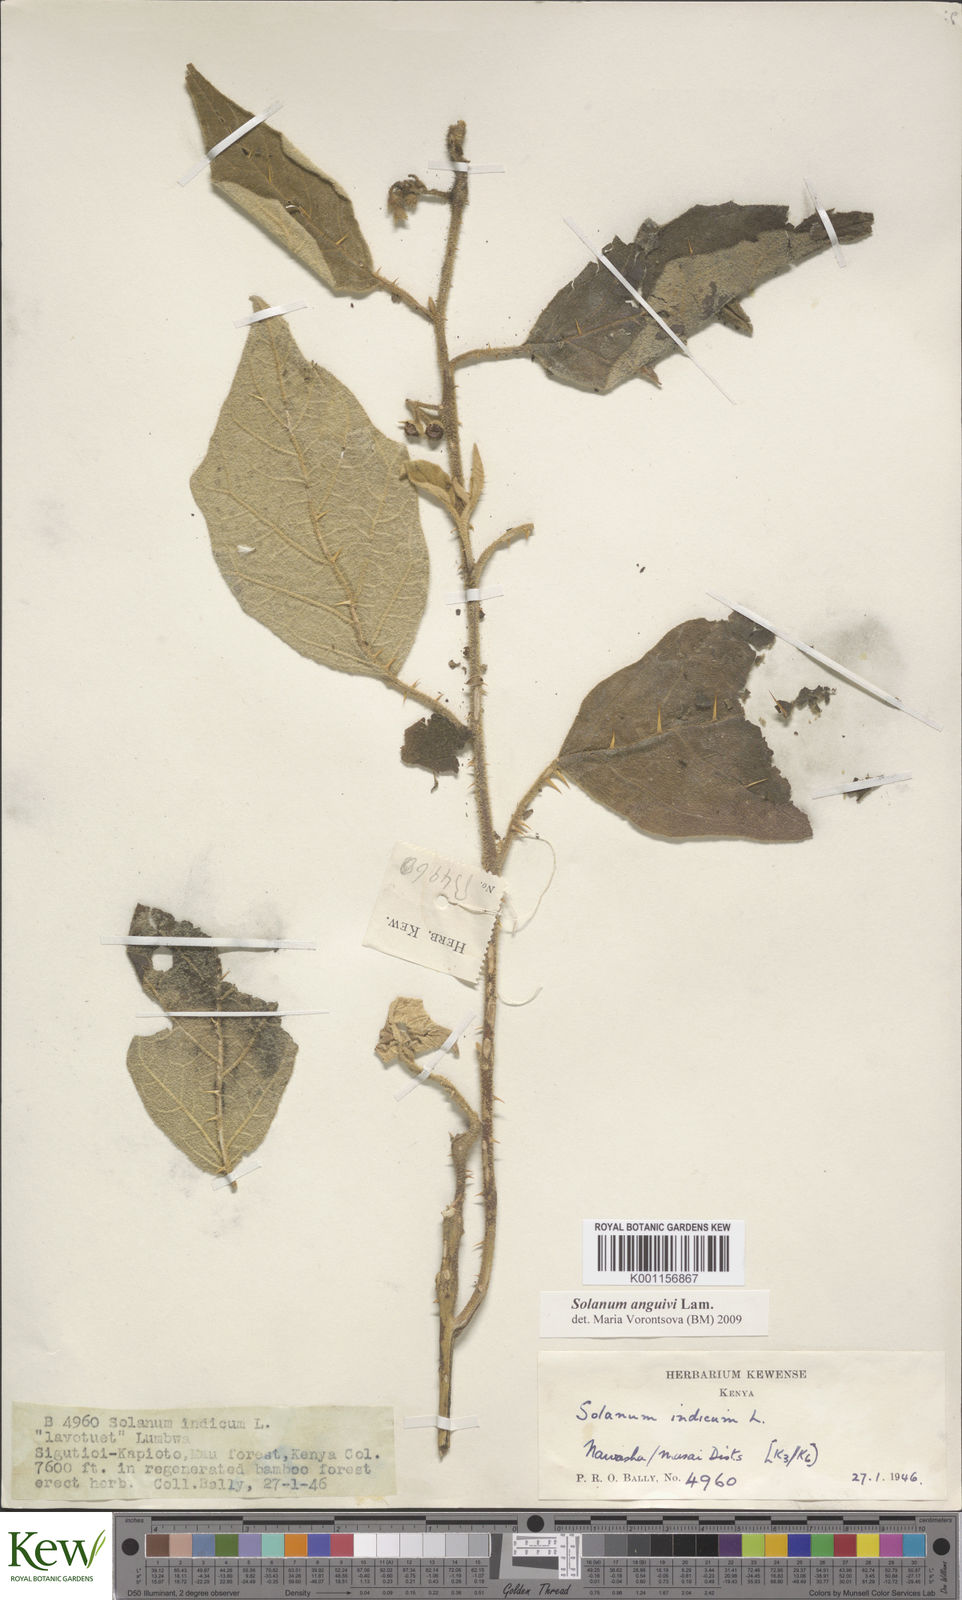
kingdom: Plantae
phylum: Tracheophyta
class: Magnoliopsida
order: Solanales
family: Solanaceae
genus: Solanum
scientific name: Solanum anguivi
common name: Forest bitterberry
